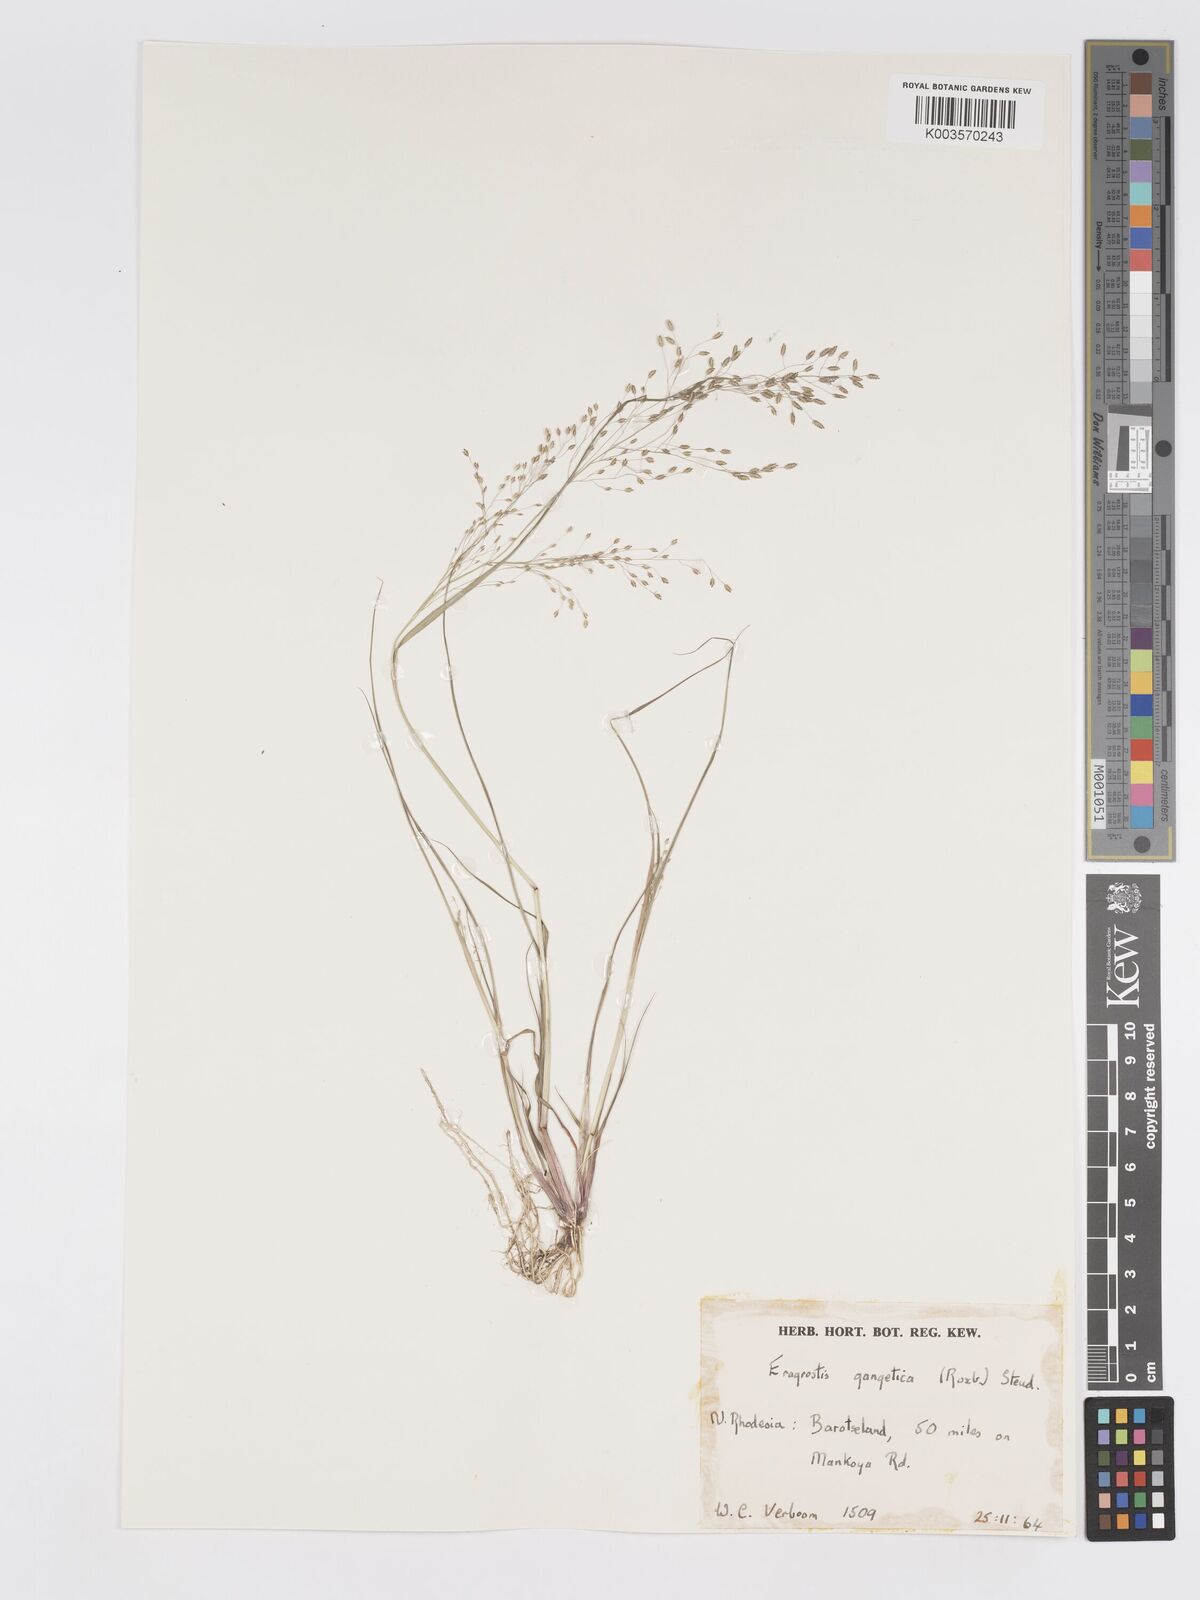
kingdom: Plantae
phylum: Tracheophyta
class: Liliopsida
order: Poales
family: Poaceae
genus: Eragrostis
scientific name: Eragrostis gangetica
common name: Slimflower lovegrass
